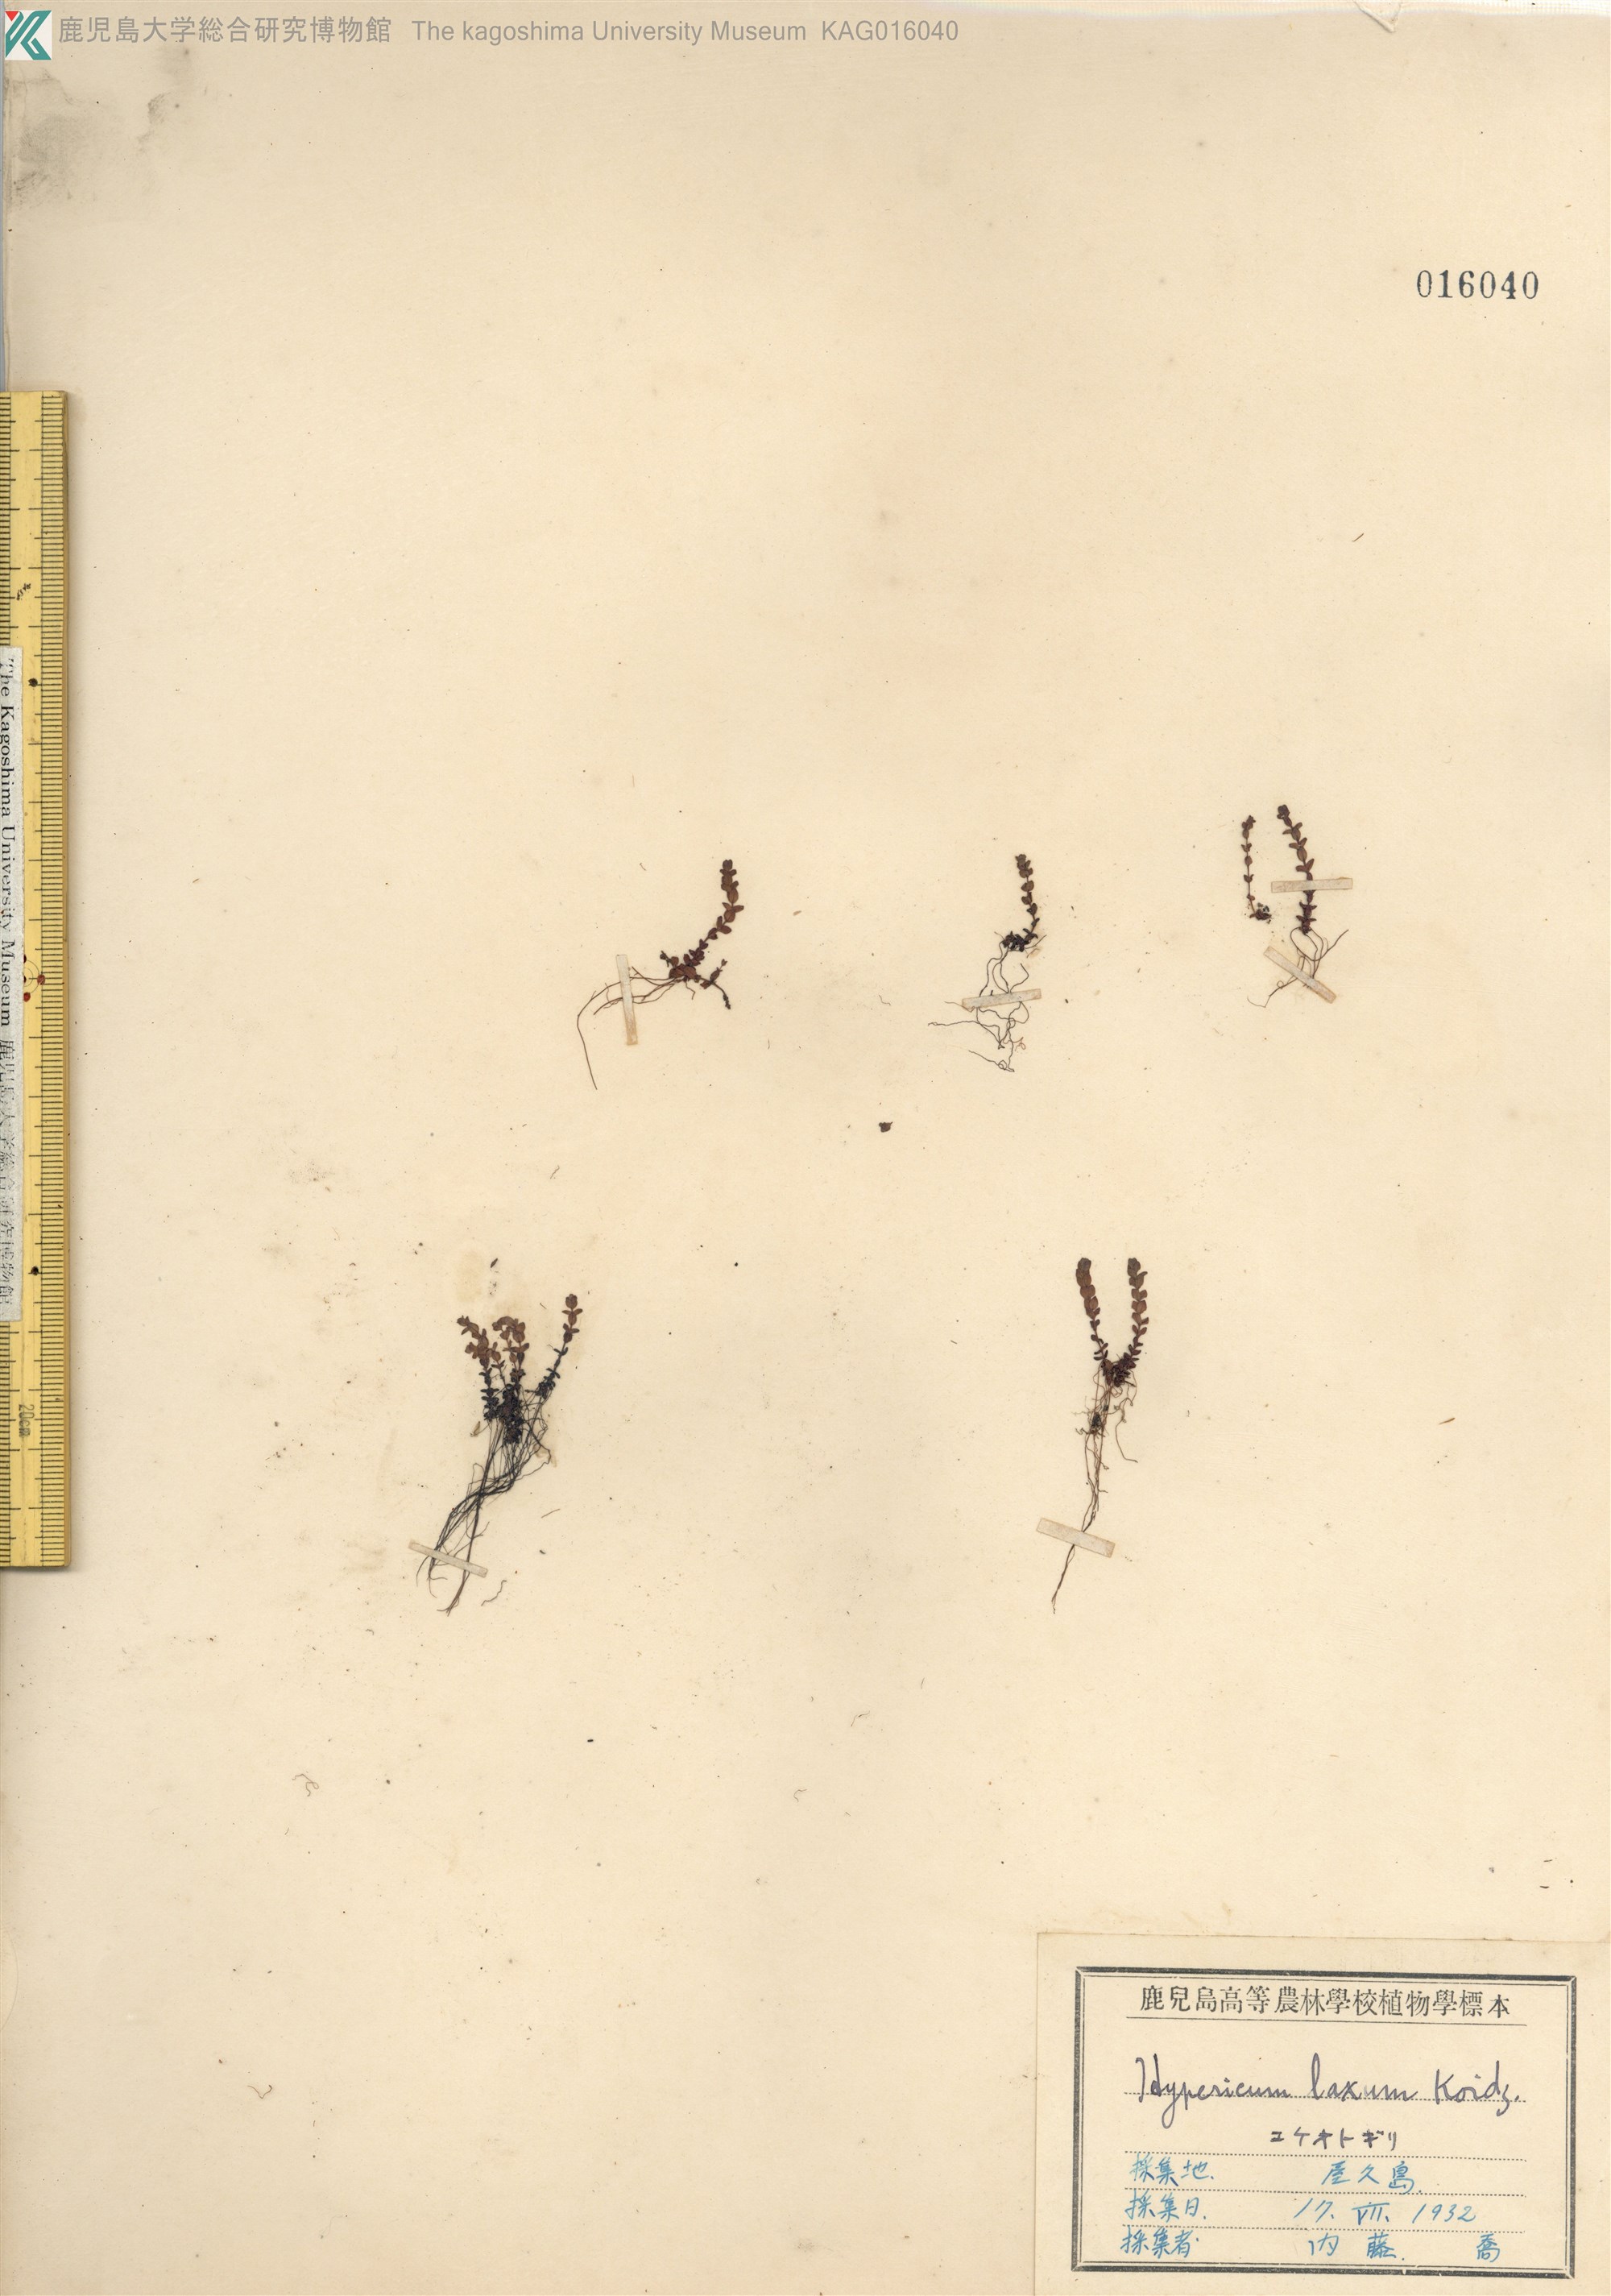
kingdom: Plantae
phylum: Tracheophyta
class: Magnoliopsida
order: Malpighiales
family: Hypericaceae
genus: Hypericum
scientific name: Hypericum japonicum
